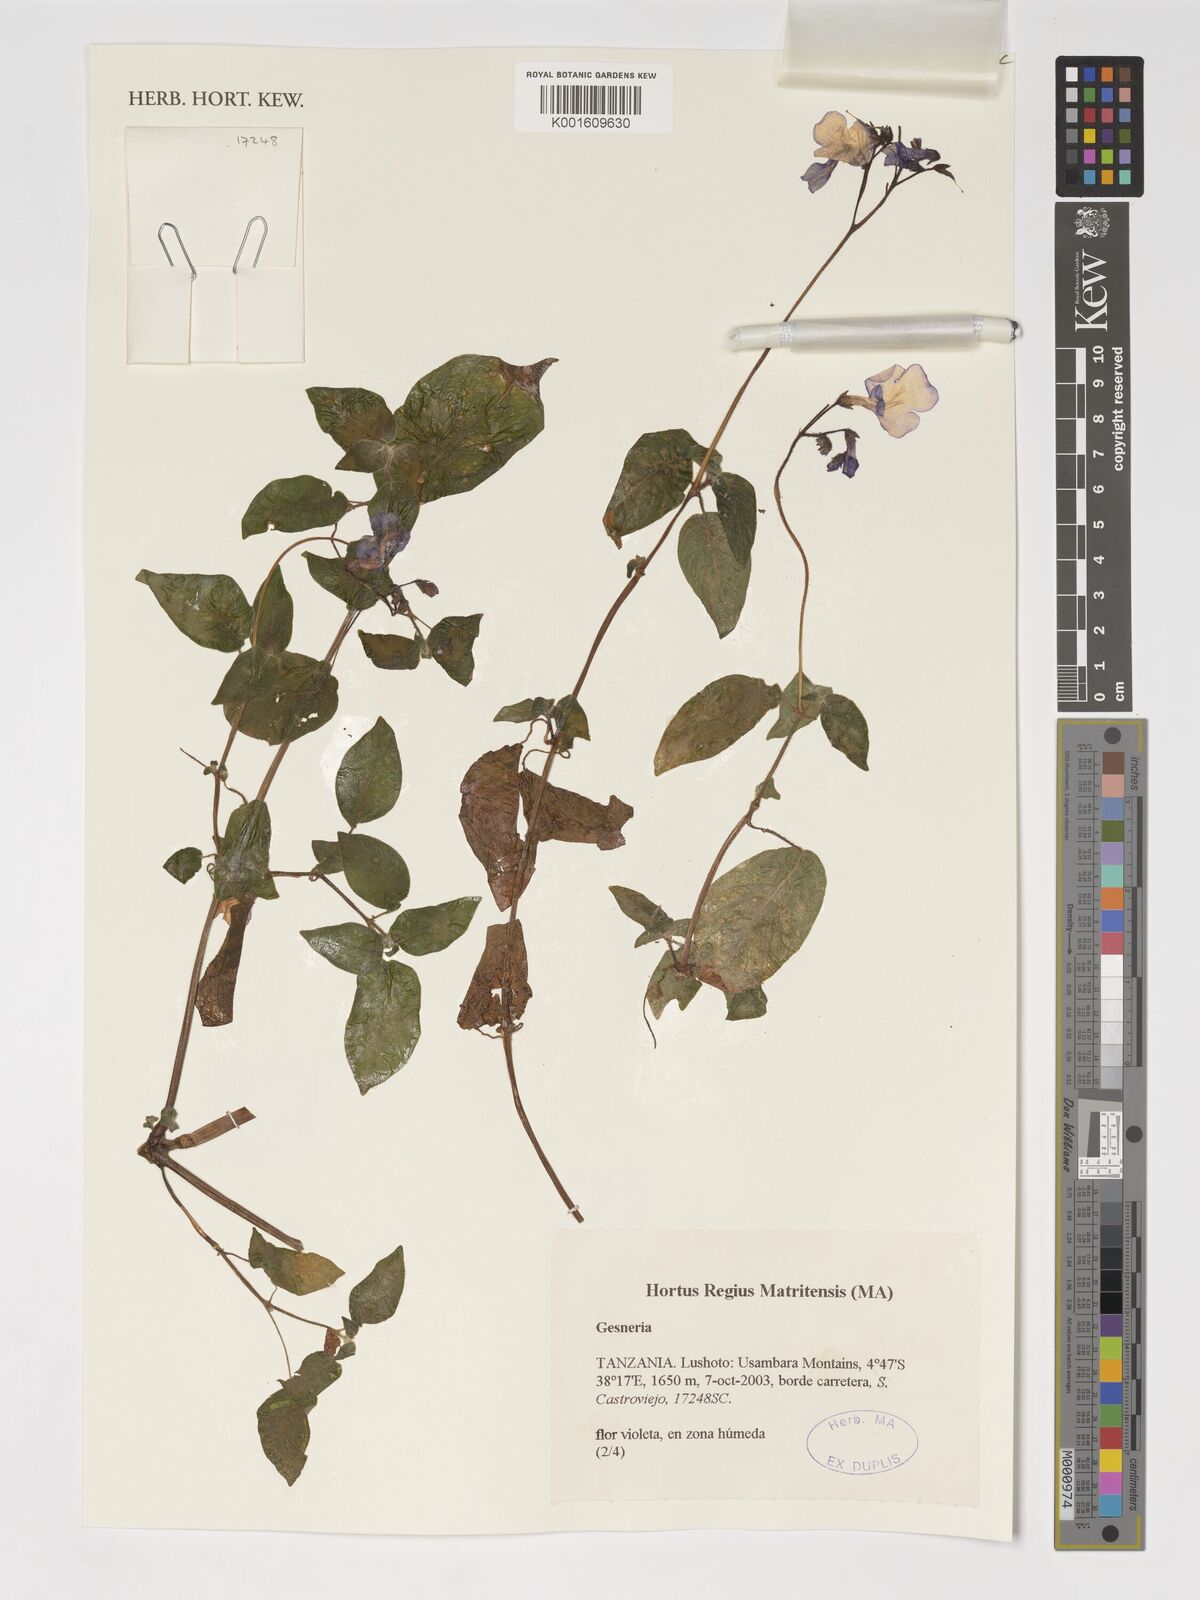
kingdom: Plantae
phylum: Tracheophyta
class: Magnoliopsida
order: Lamiales
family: Gesneriaceae
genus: Gesneria
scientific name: Gesneria
